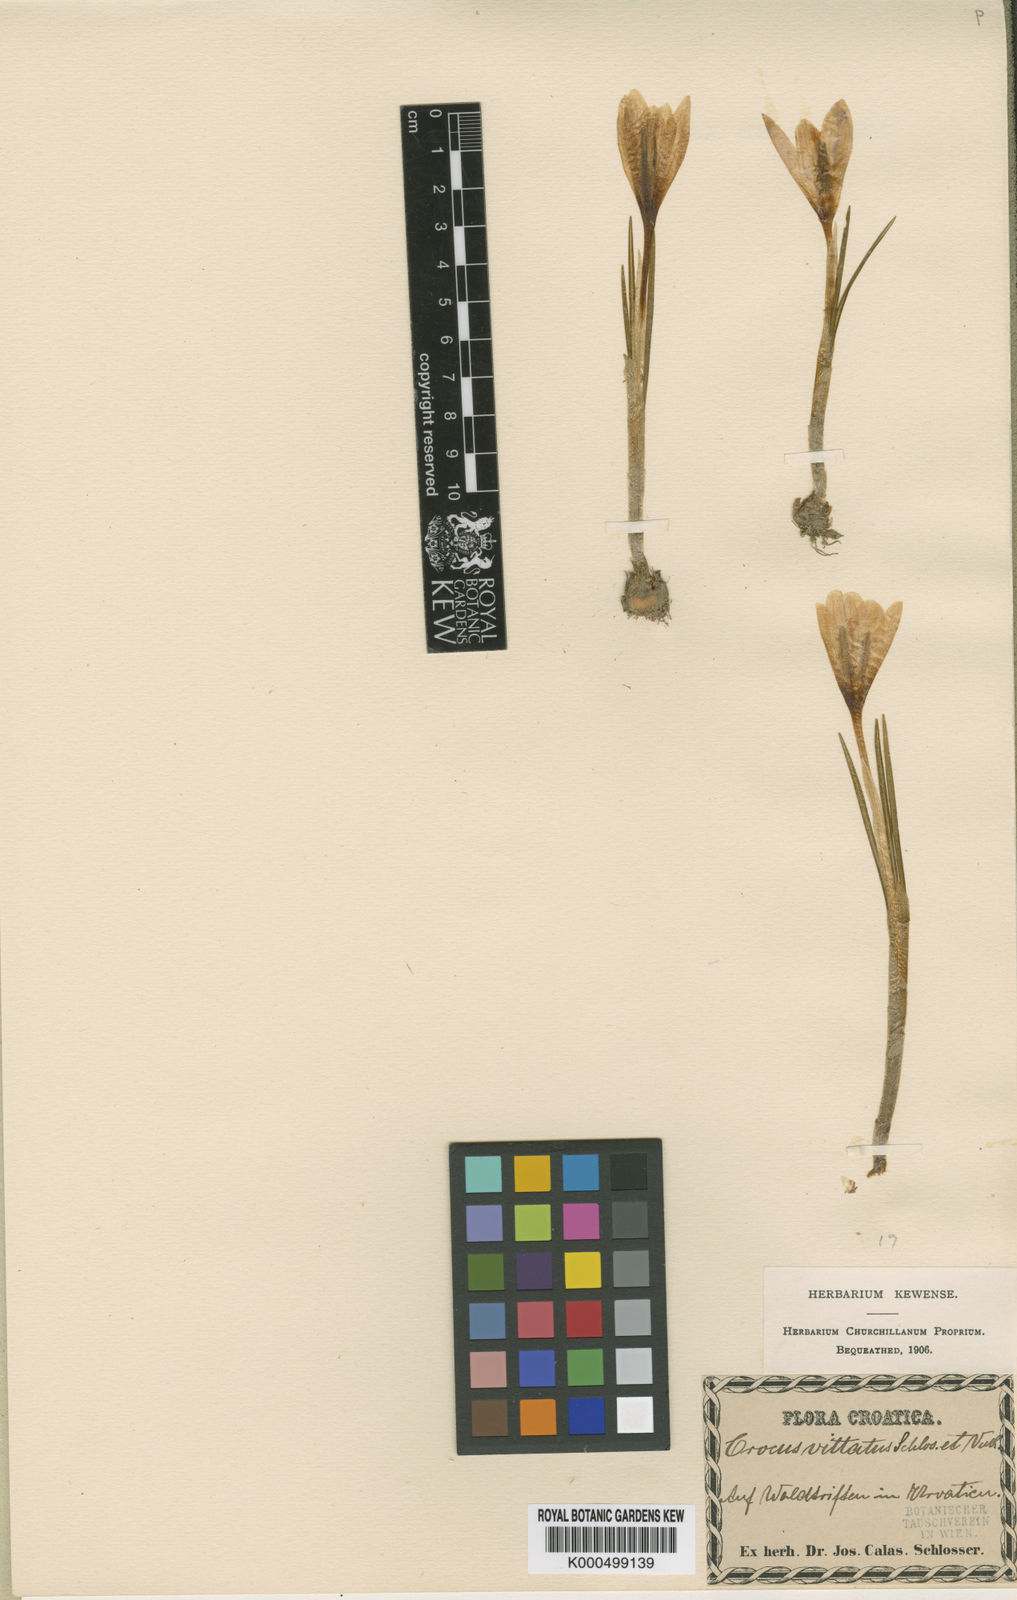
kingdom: Plantae
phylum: Tracheophyta
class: Liliopsida
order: Asparagales
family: Iridaceae
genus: Crocus
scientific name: Crocus
